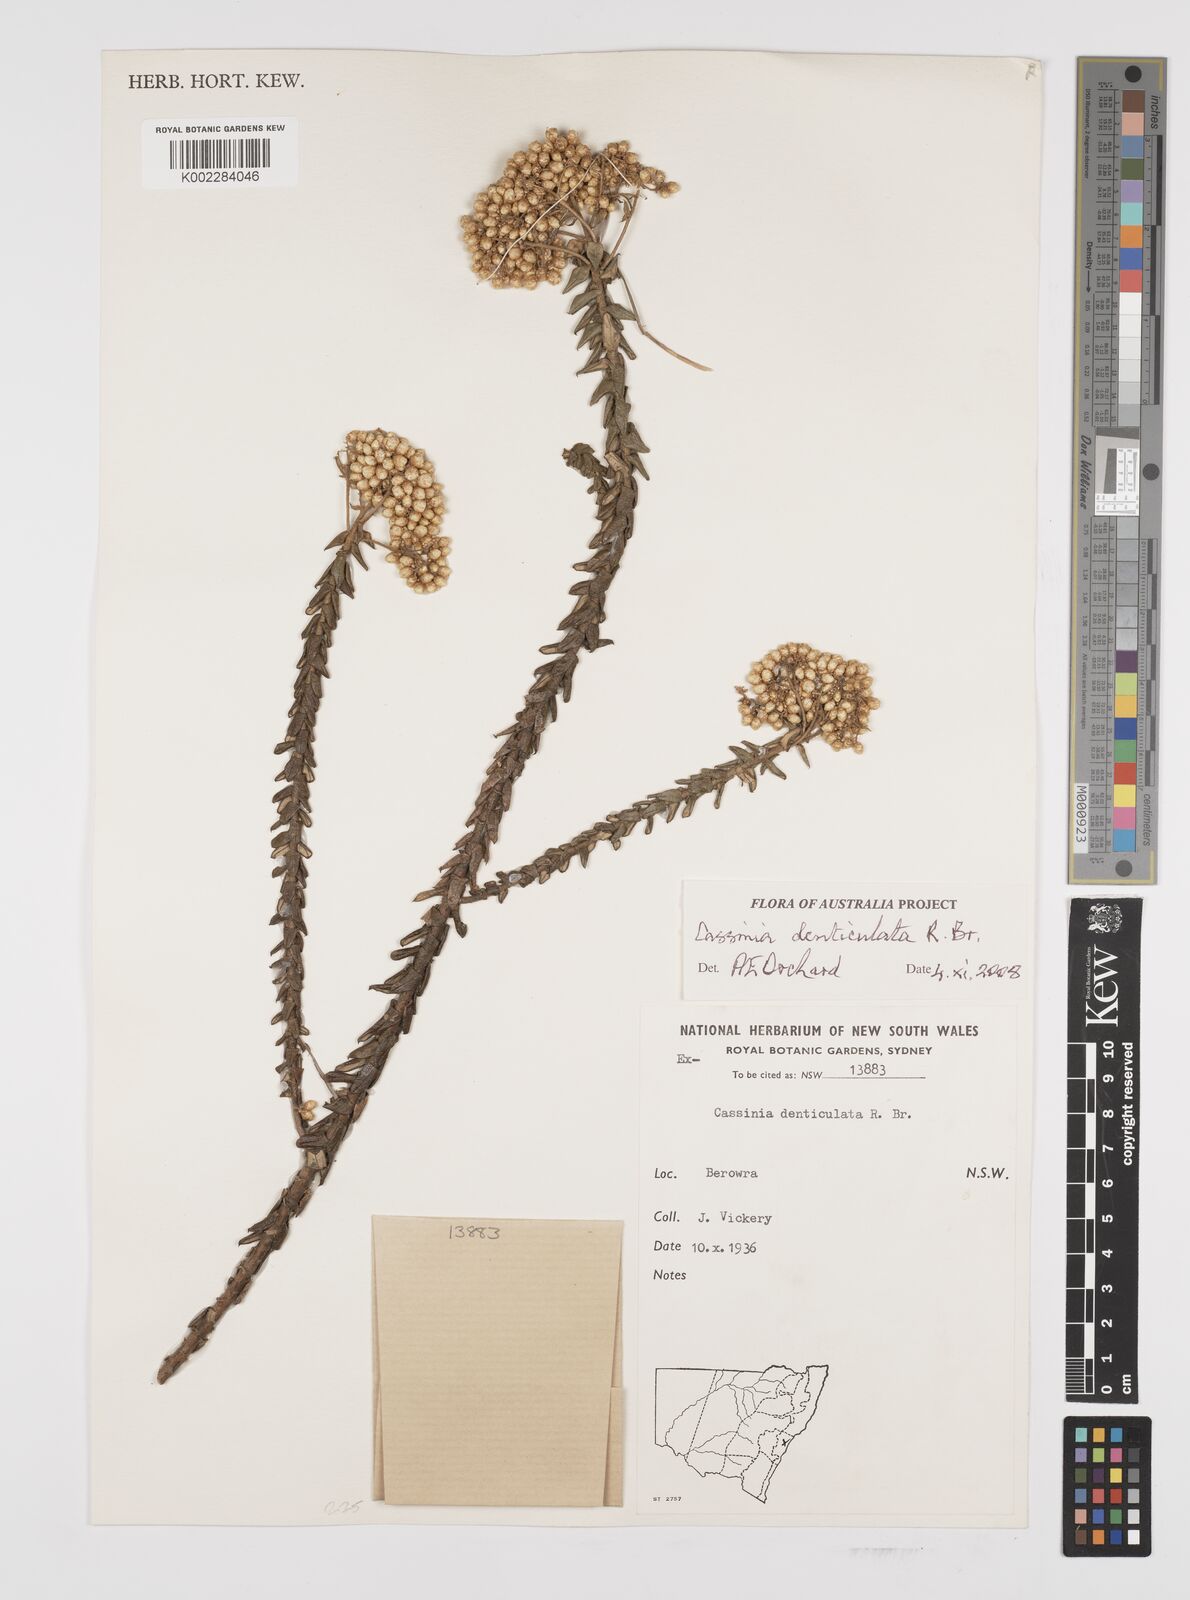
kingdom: Plantae
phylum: Tracheophyta
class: Magnoliopsida
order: Asterales
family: Asteraceae
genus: Cassinia
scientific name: Cassinia denticulata
